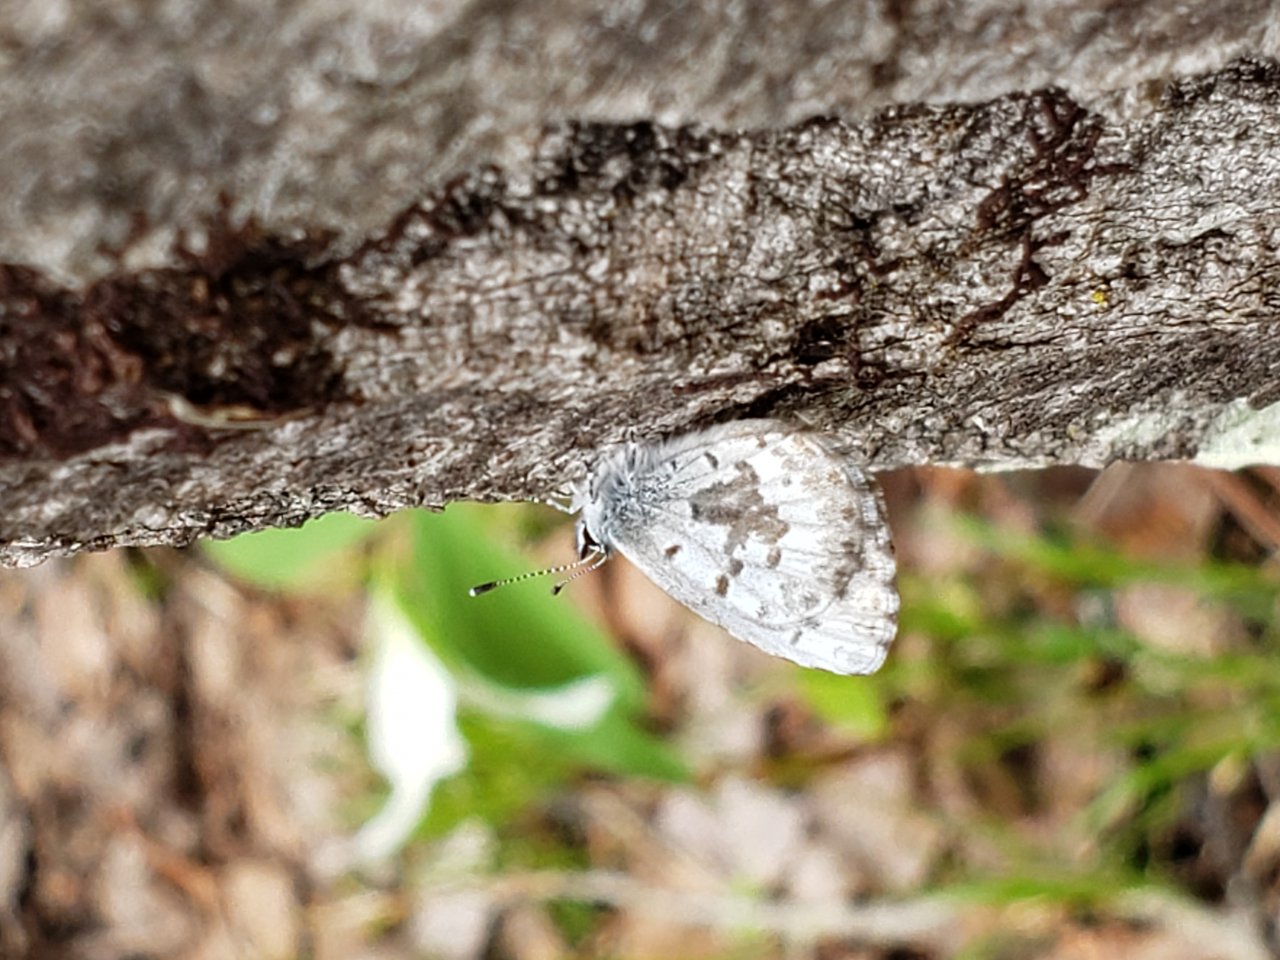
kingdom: Animalia
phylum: Arthropoda
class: Insecta
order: Lepidoptera
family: Lycaenidae
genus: Celastrina
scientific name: Celastrina lucia
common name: Northern Spring Azure
